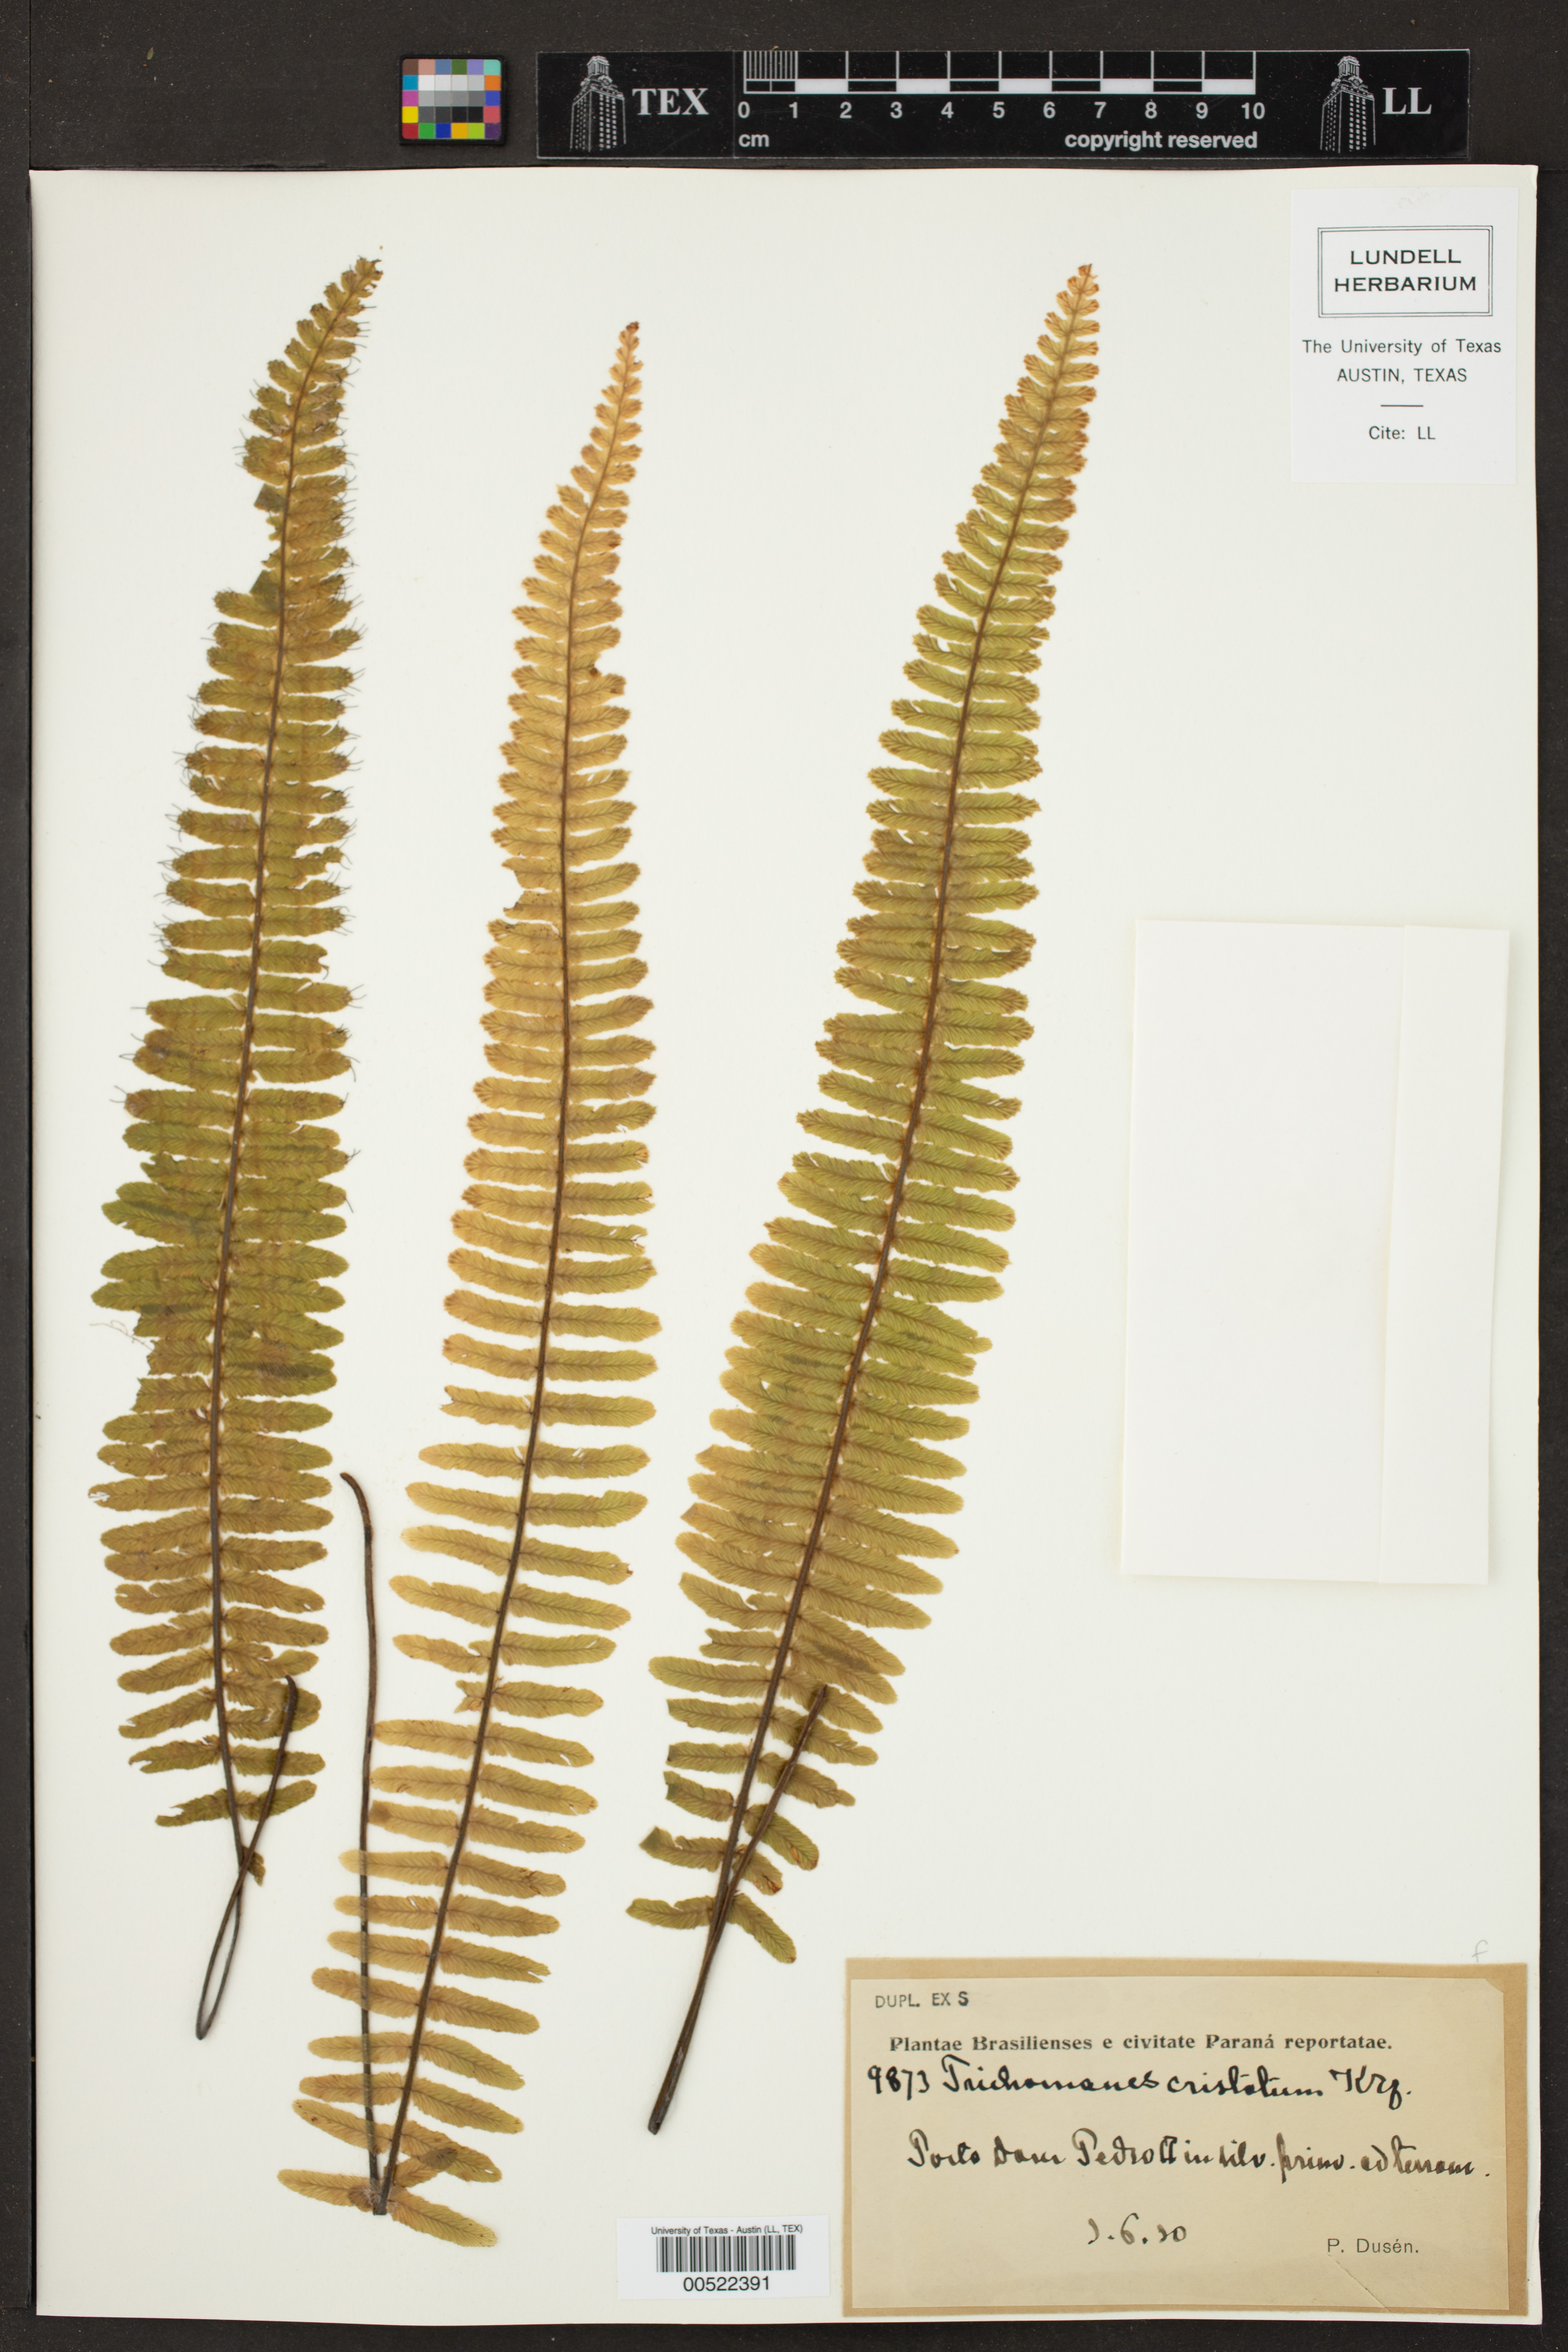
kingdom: Plantae
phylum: Tracheophyta
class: Polypodiopsida
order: Hymenophyllales
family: Hymenophyllaceae
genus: Trichomanes
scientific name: Trichomanes cristatum
